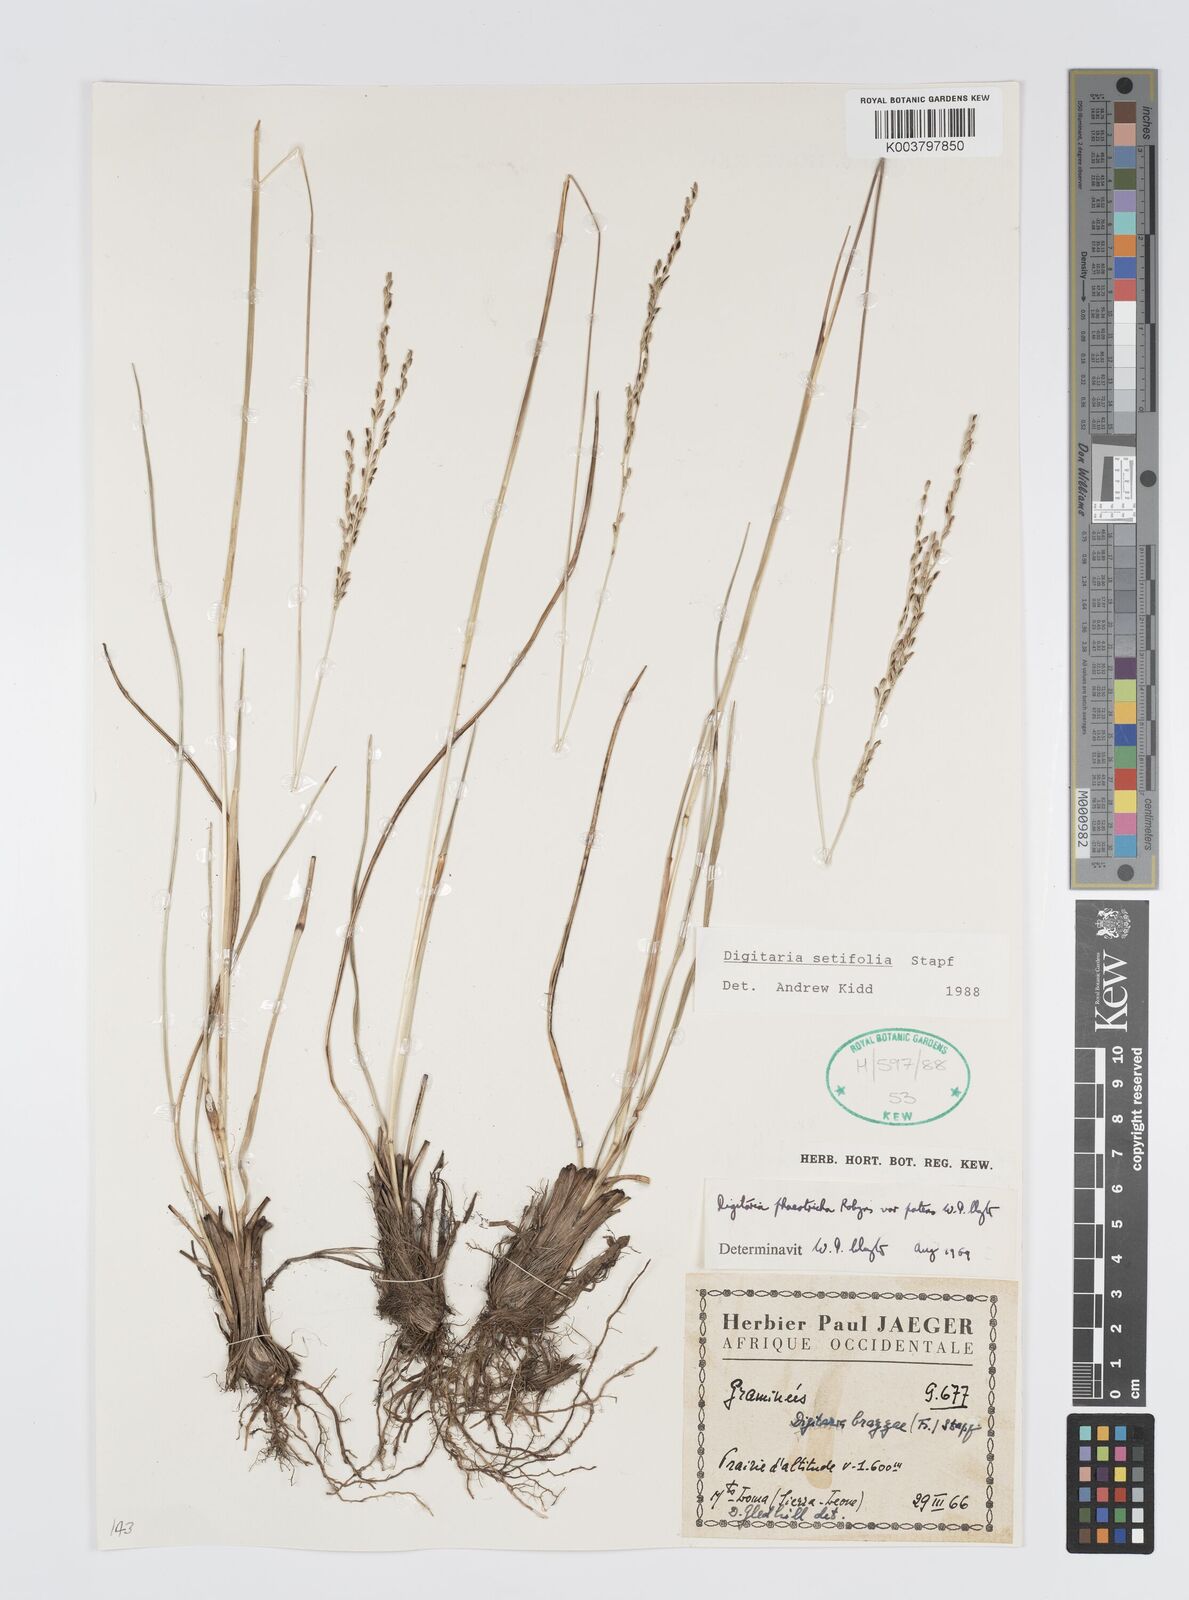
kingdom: Plantae
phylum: Tracheophyta
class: Liliopsida
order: Poales
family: Poaceae
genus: Digitaria
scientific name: Digitaria setifolia
